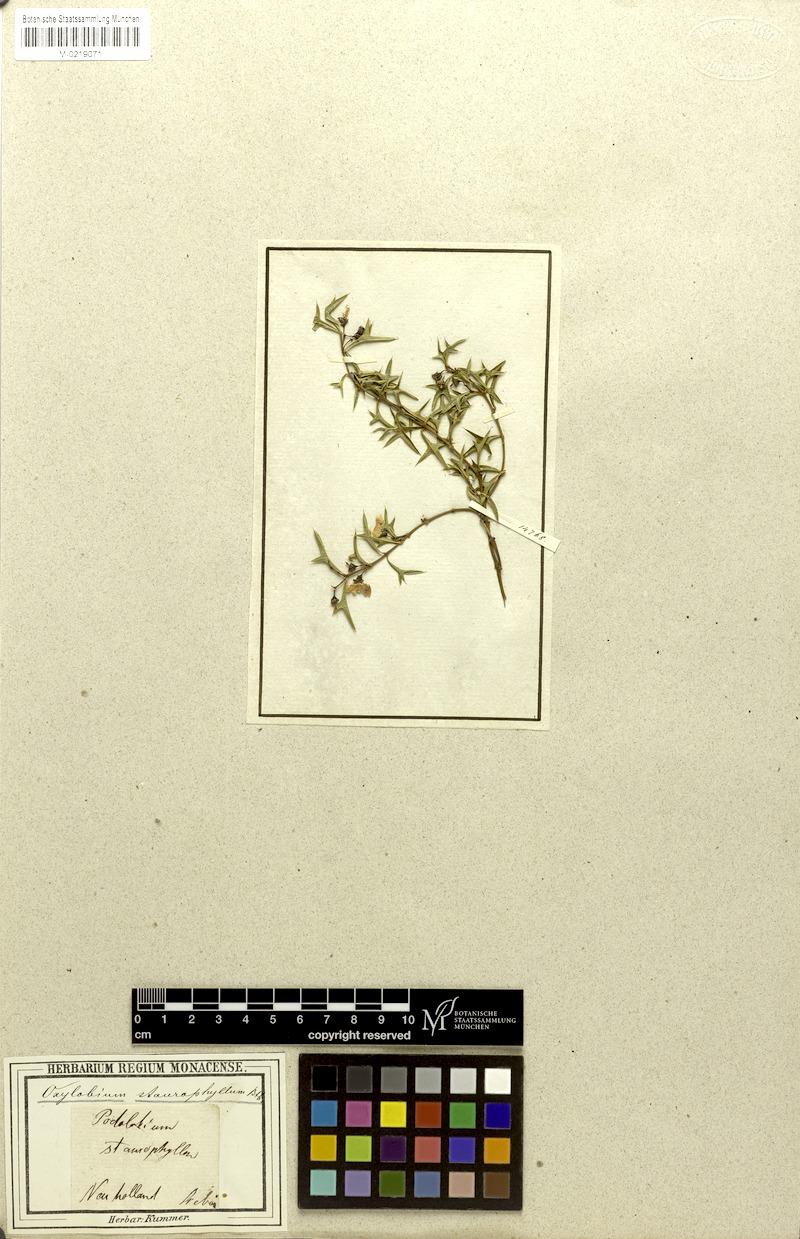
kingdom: Plantae
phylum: Tracheophyta
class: Magnoliopsida
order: Fabales
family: Fabaceae
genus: Podolobium
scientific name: Podolobium ilicifolium
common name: Native holly
